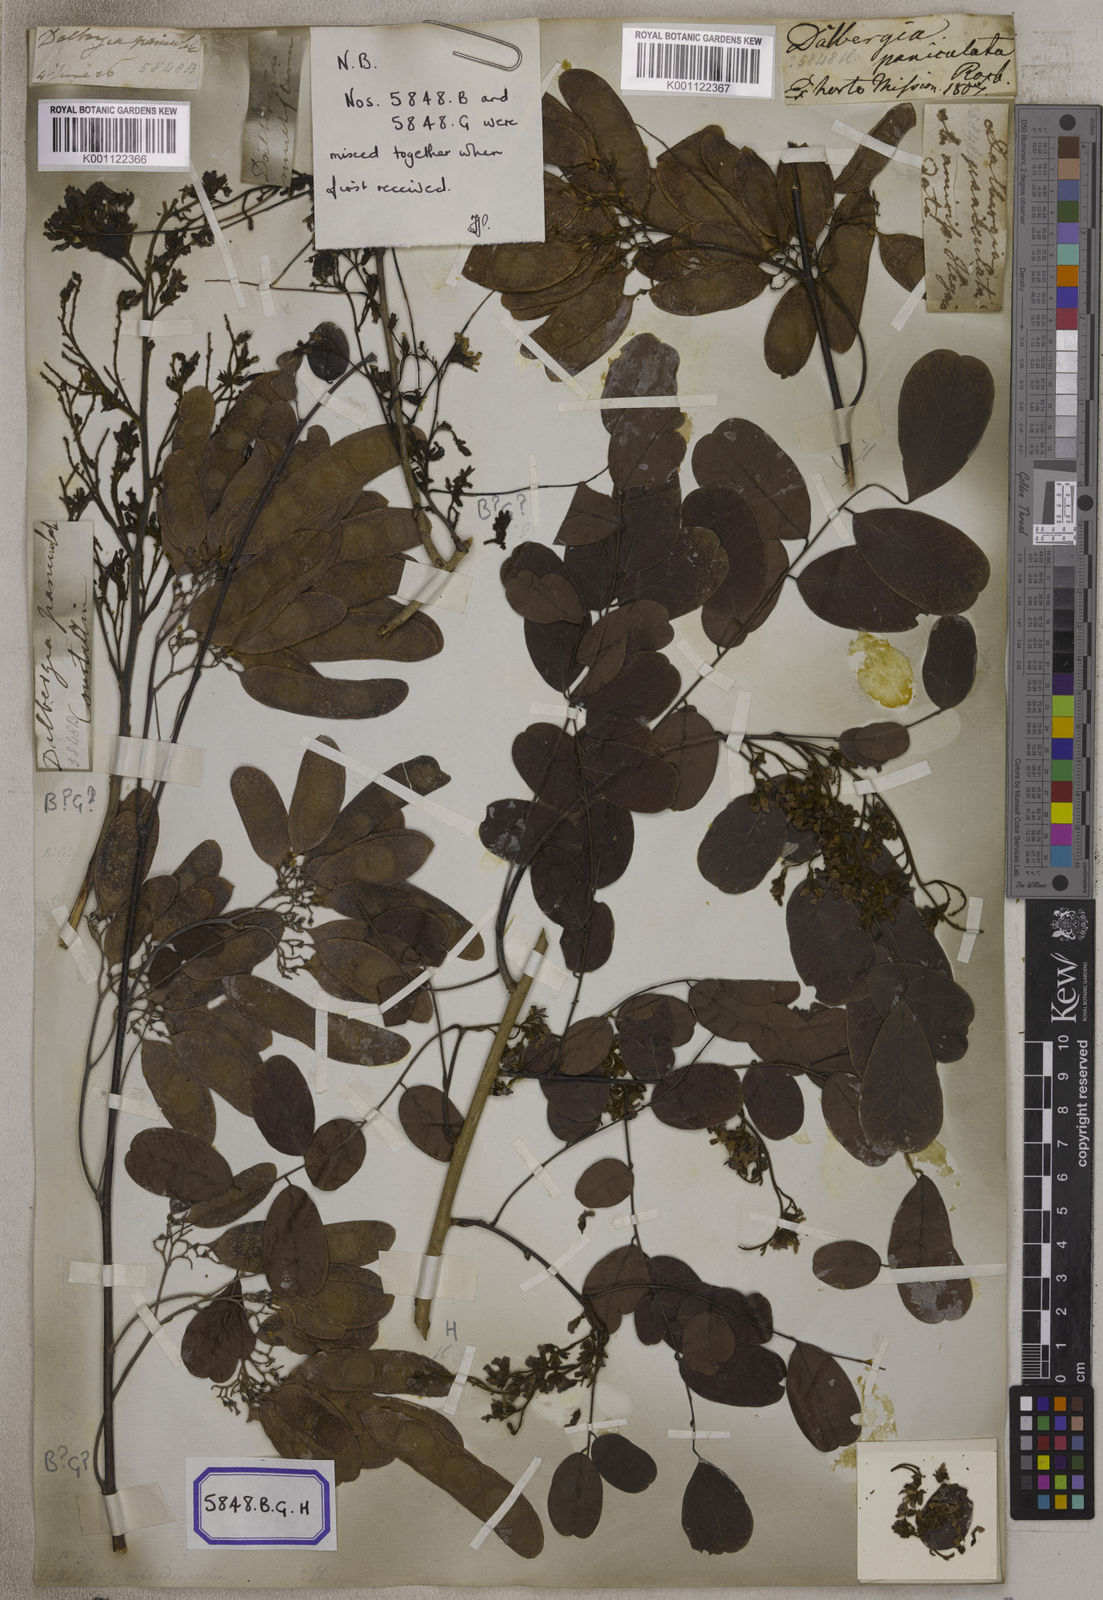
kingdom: Plantae
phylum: Tracheophyta
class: Magnoliopsida
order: Fabales
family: Fabaceae
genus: Dalbergia
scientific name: Dalbergia lanceolaria
